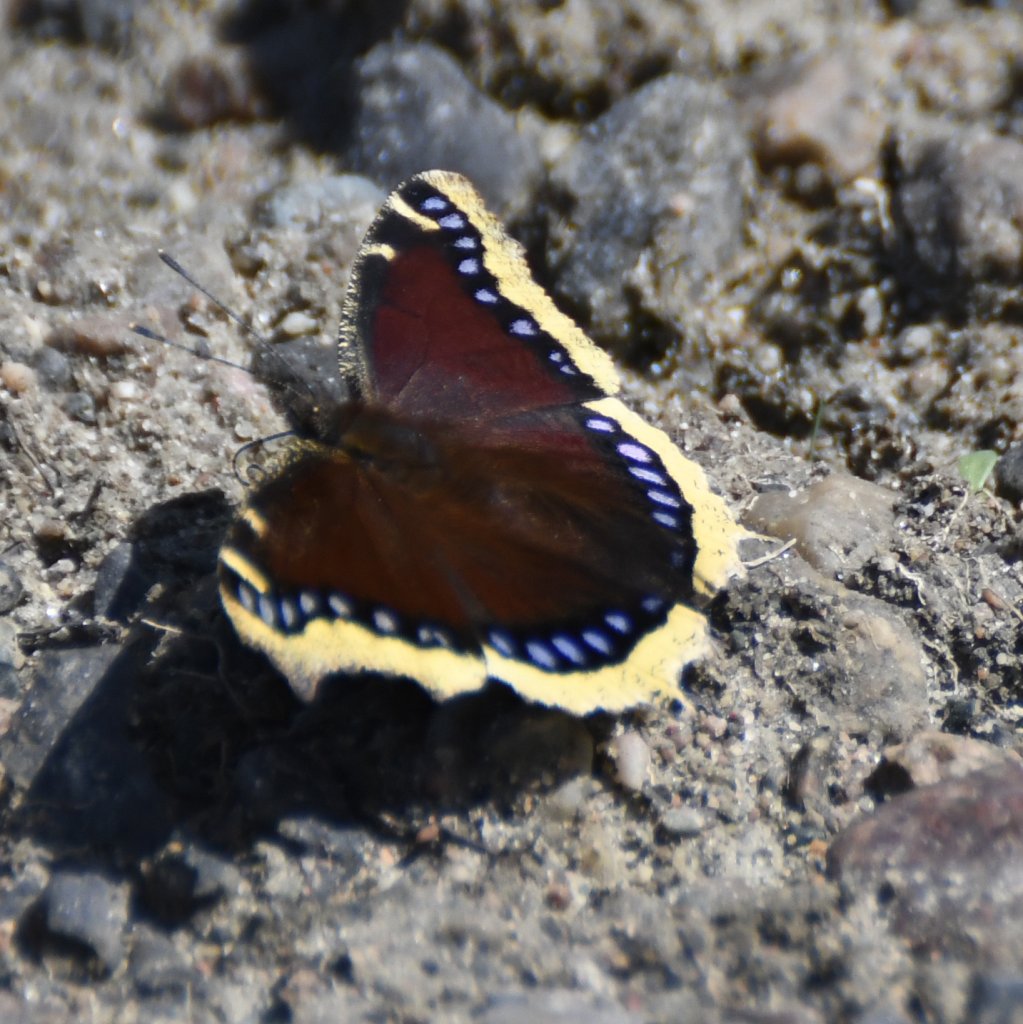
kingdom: Animalia
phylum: Arthropoda
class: Insecta
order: Lepidoptera
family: Nymphalidae
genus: Nymphalis
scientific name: Nymphalis antiopa
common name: Mourning Cloak
